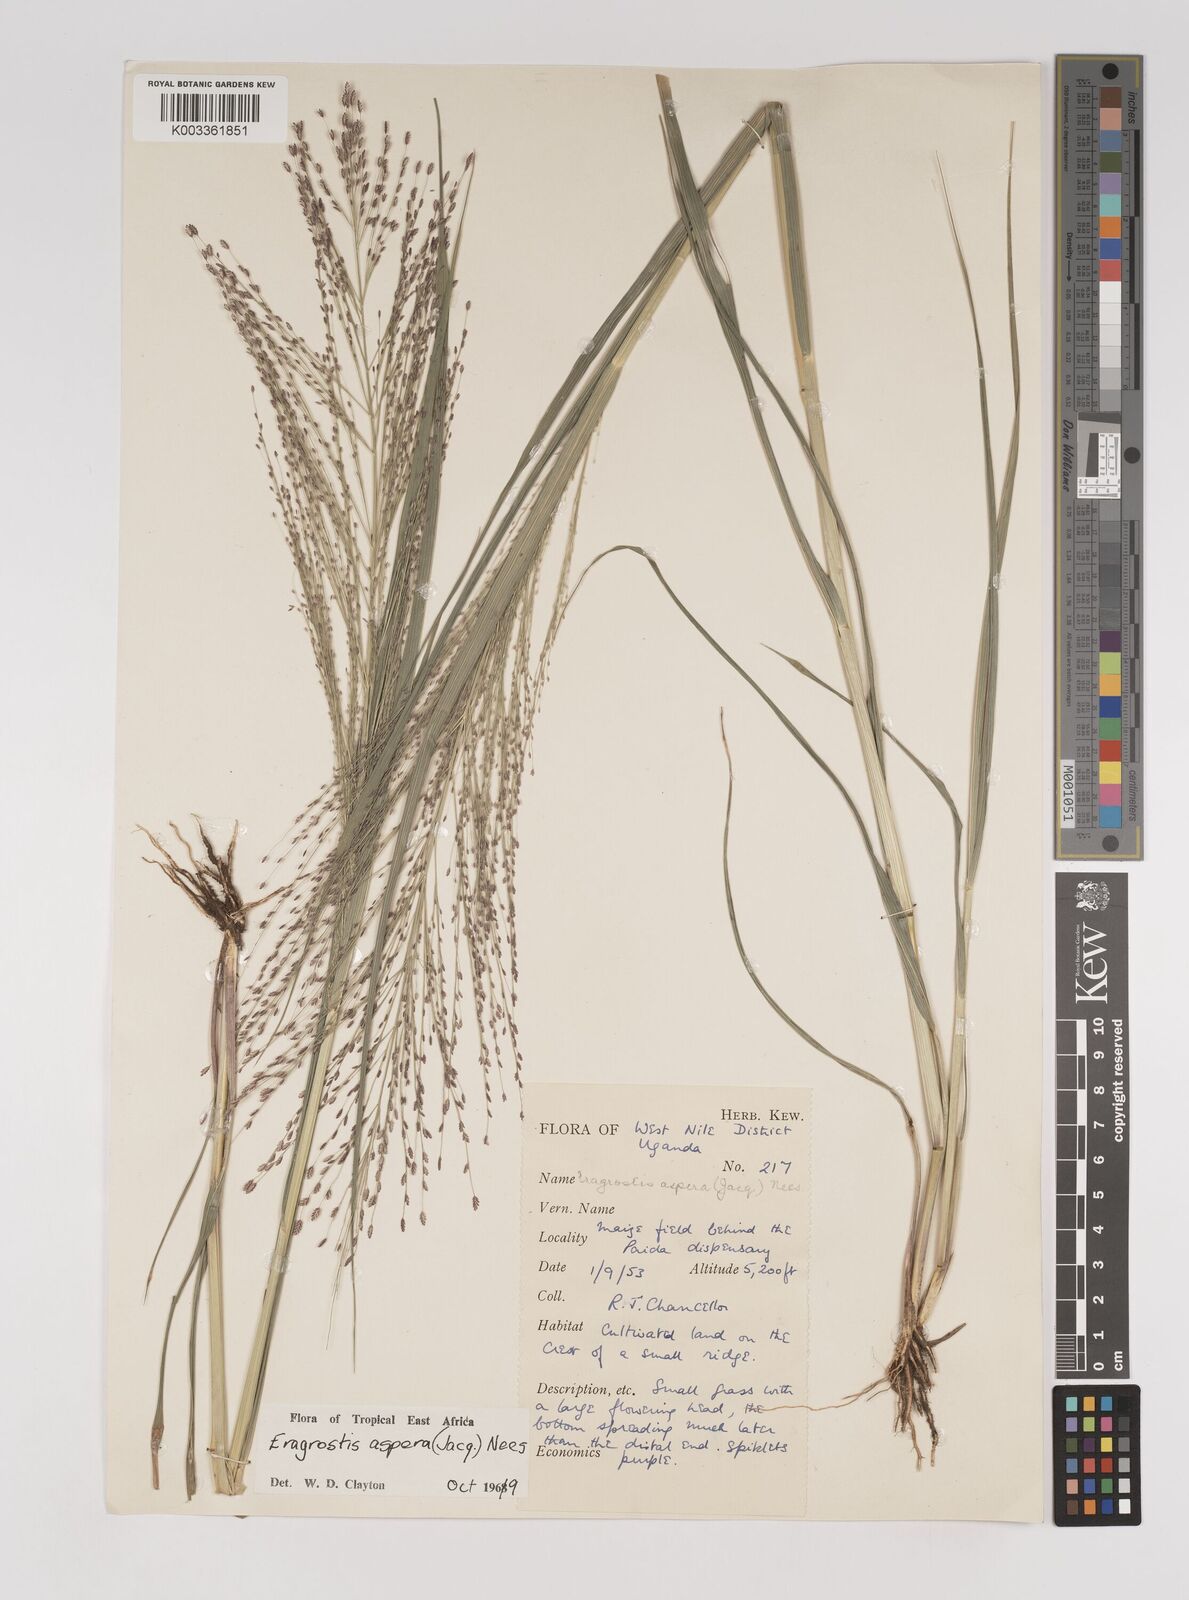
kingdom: Plantae
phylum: Tracheophyta
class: Liliopsida
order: Poales
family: Poaceae
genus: Eragrostis
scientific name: Eragrostis aspera
